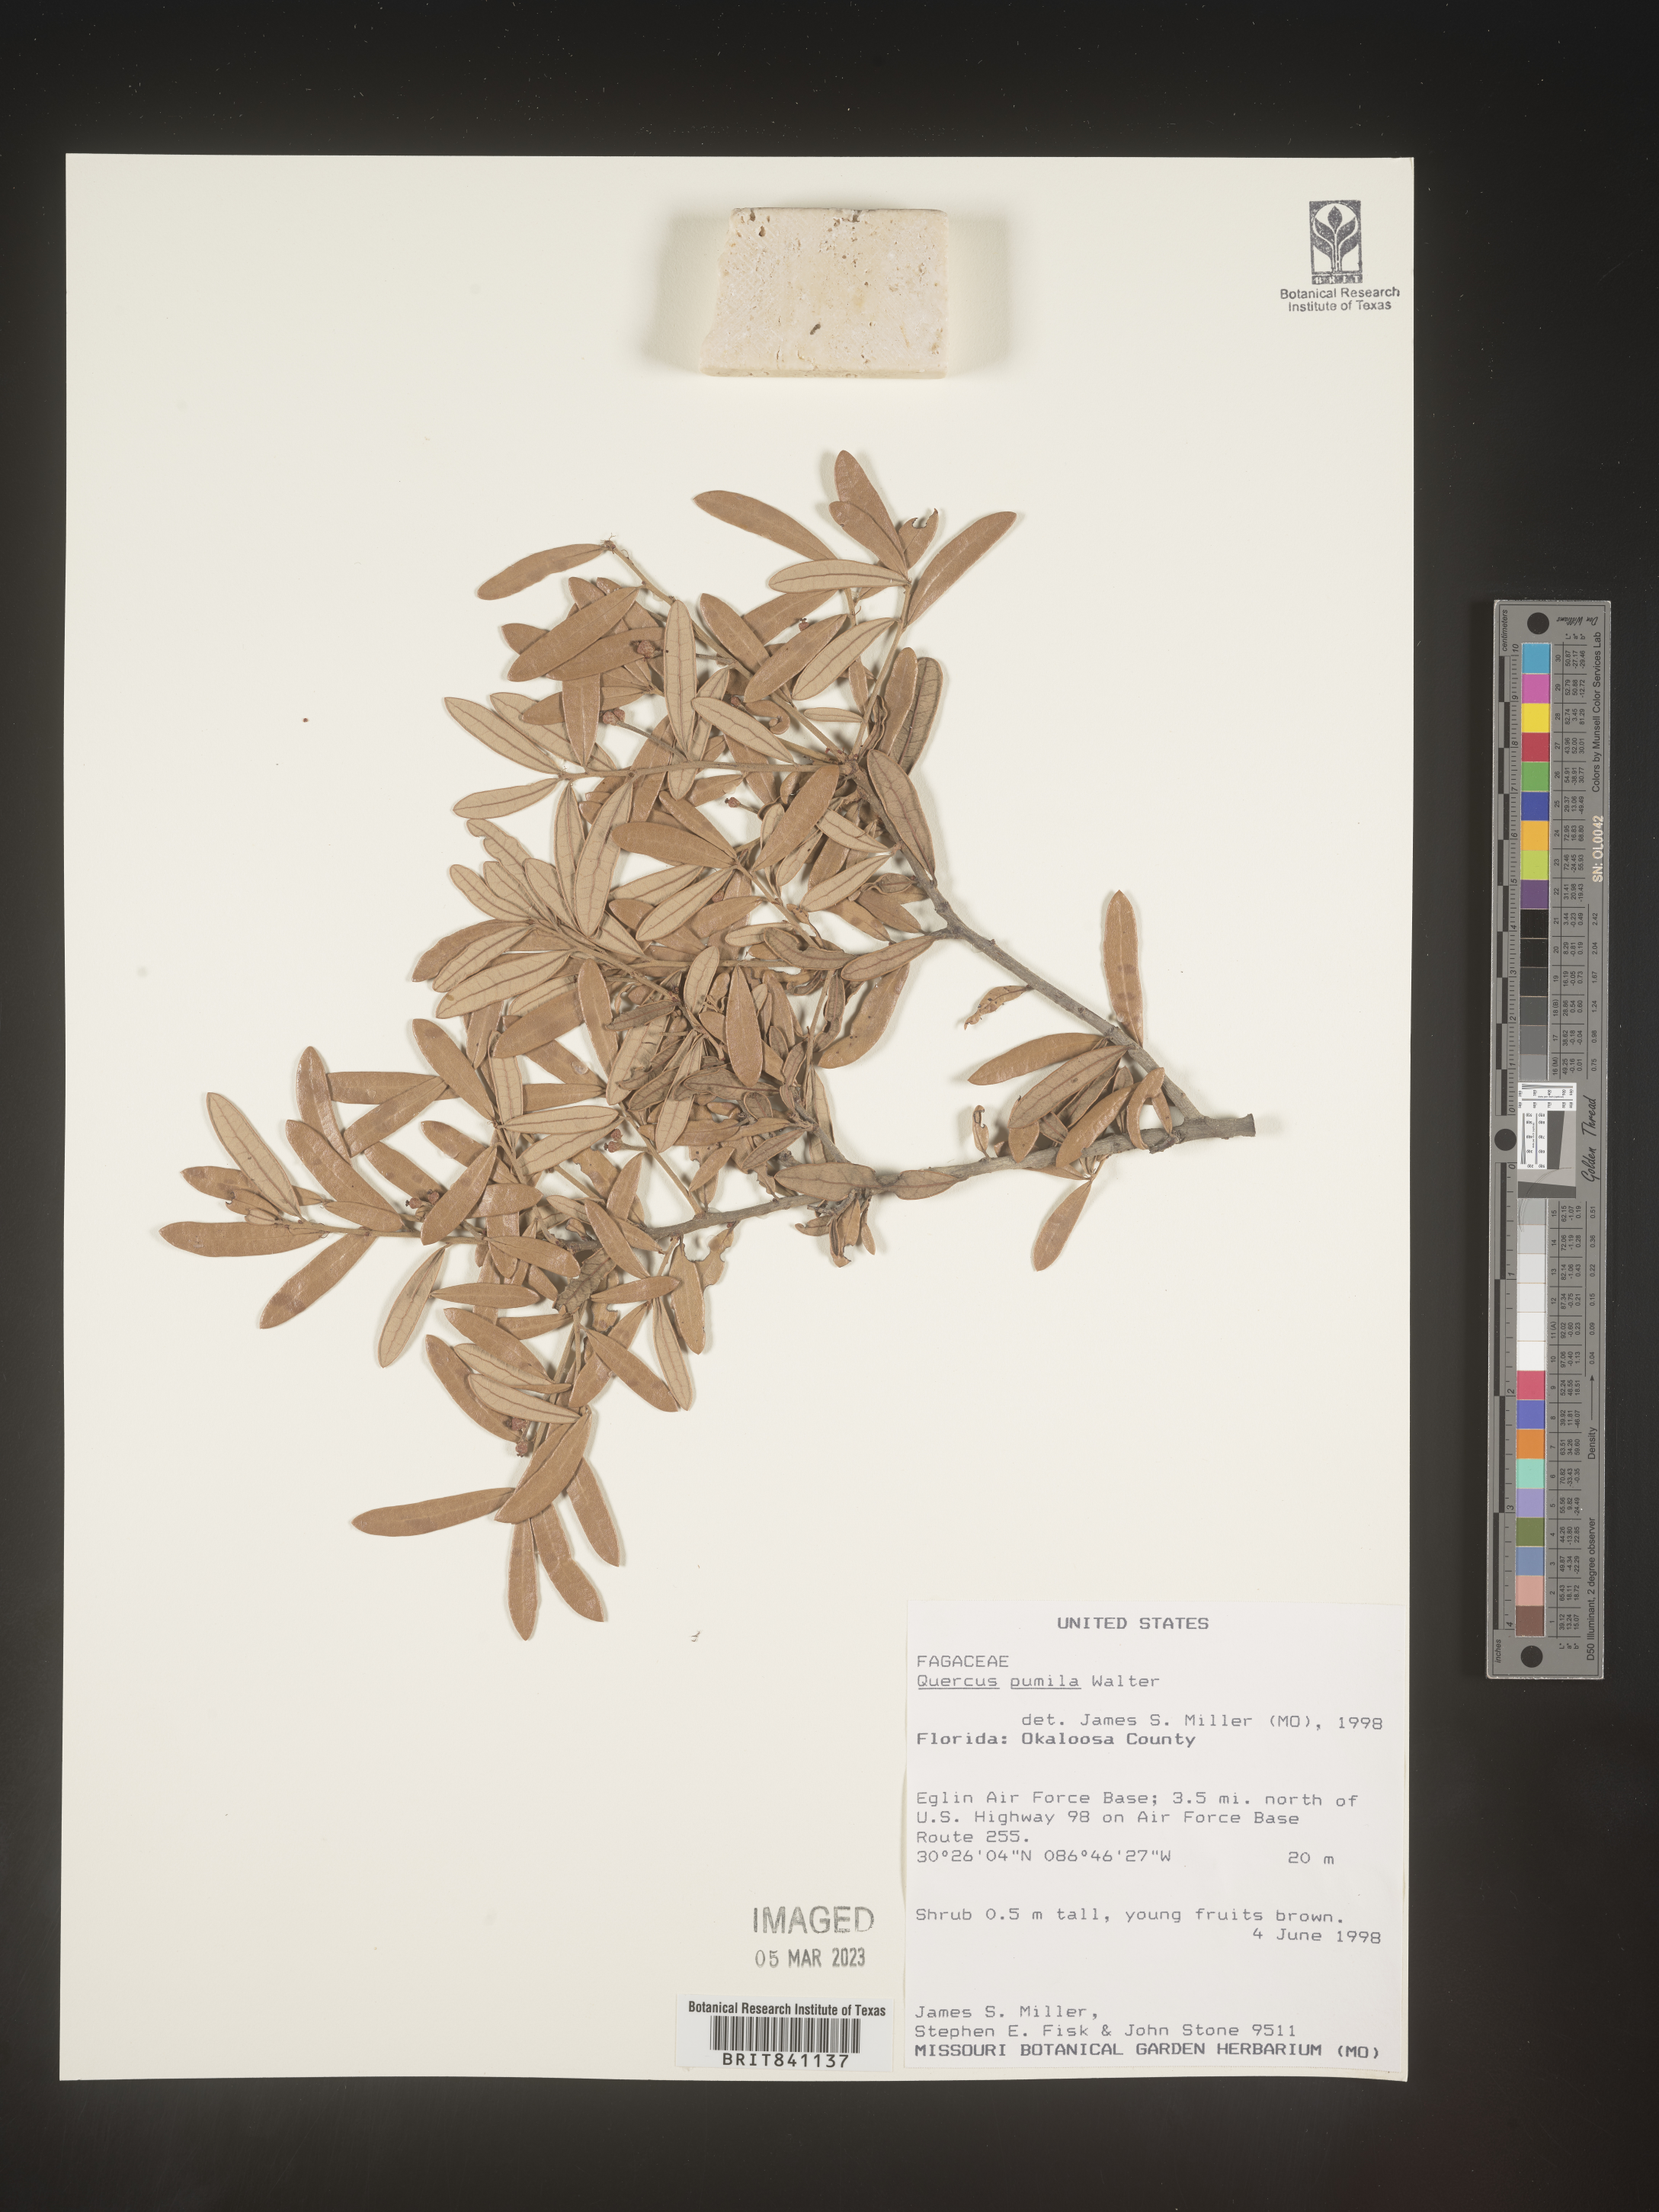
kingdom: Plantae
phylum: Tracheophyta
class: Magnoliopsida
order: Fagales
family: Fagaceae
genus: Quercus
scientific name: Quercus pumila
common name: Runner oak
